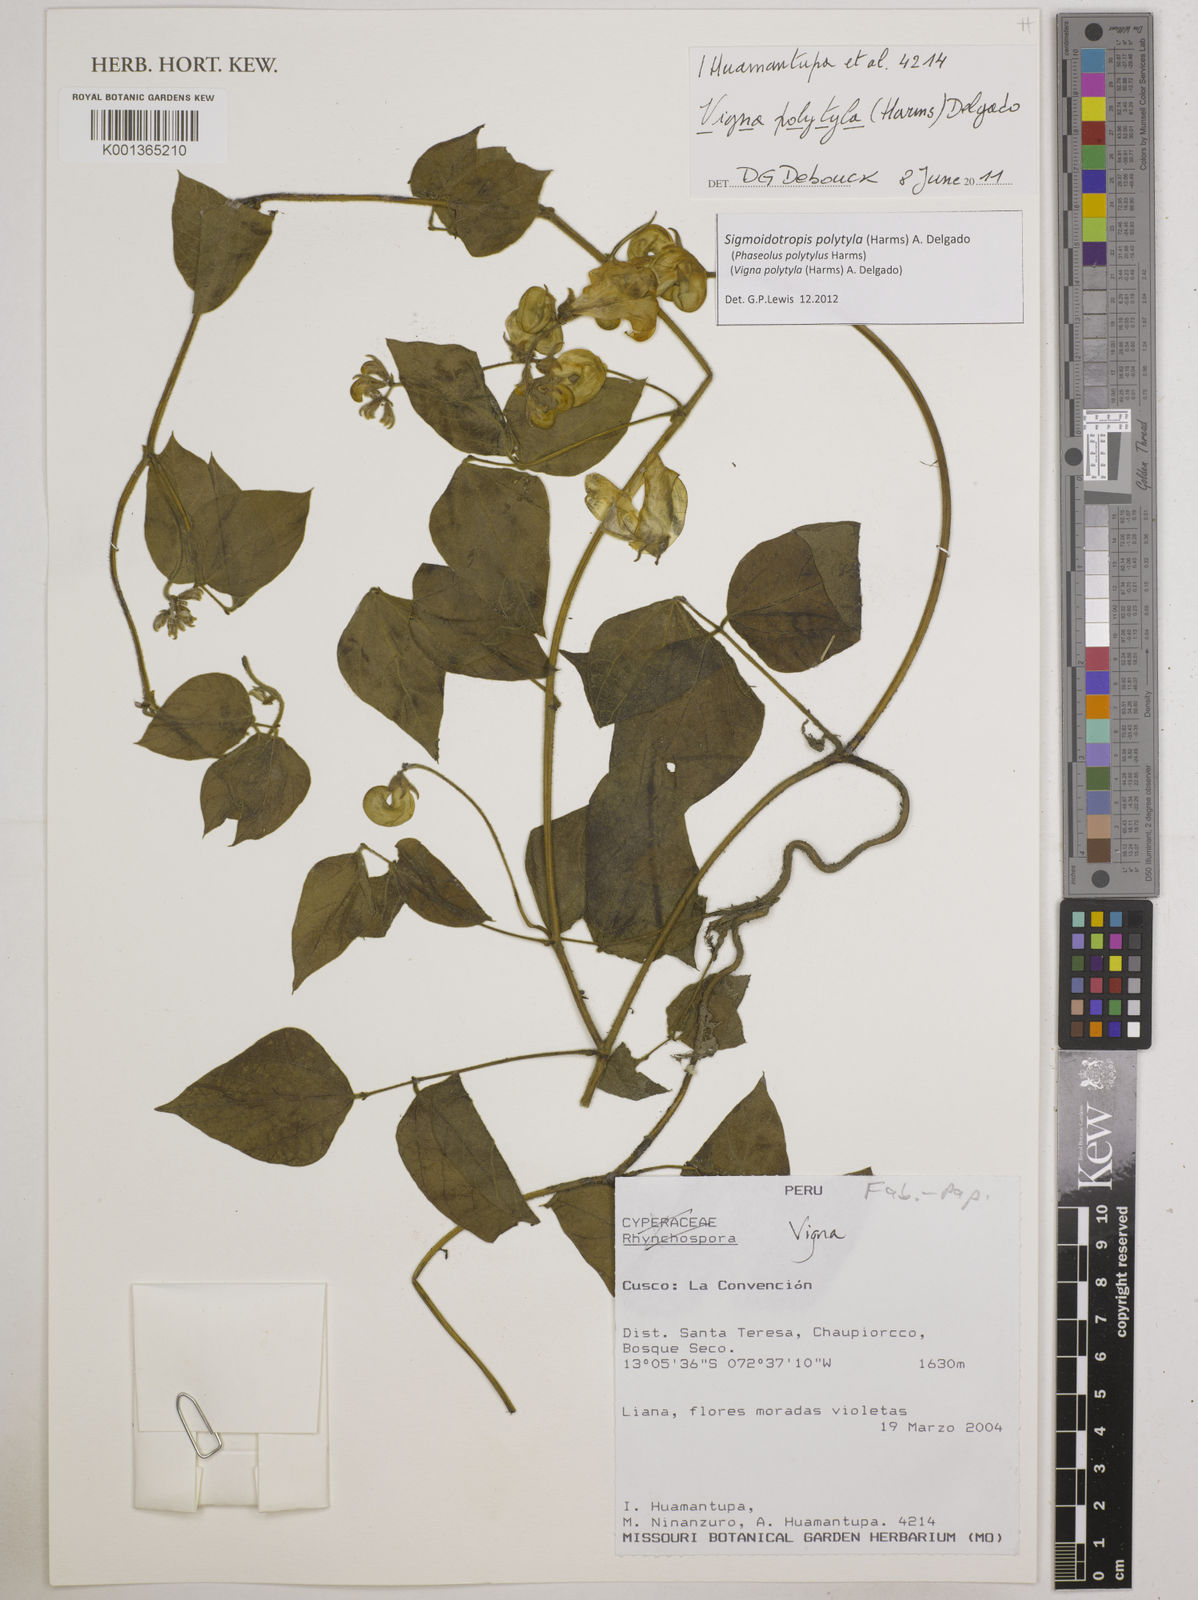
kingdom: Plantae
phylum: Tracheophyta
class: Magnoliopsida
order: Fabales
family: Fabaceae
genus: Sigmoidotropis
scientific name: Sigmoidotropis polytyla
